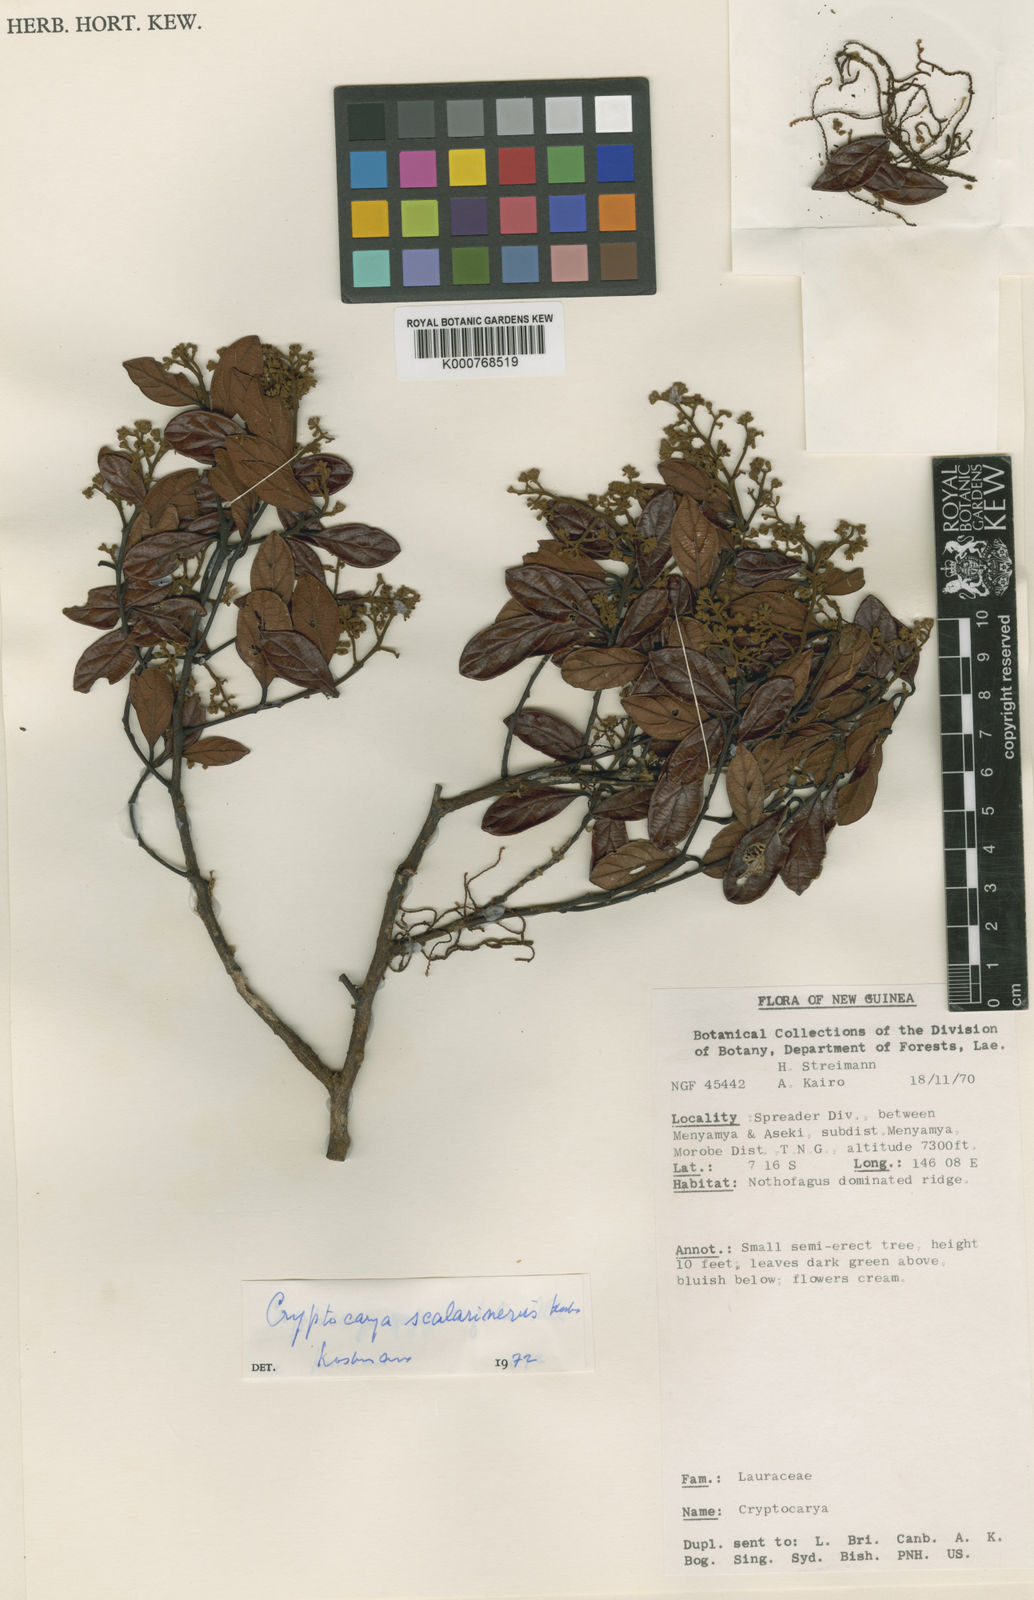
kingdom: Plantae
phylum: Tracheophyta
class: Magnoliopsida
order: Laurales
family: Lauraceae
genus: Cryptocarya
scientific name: Cryptocarya
